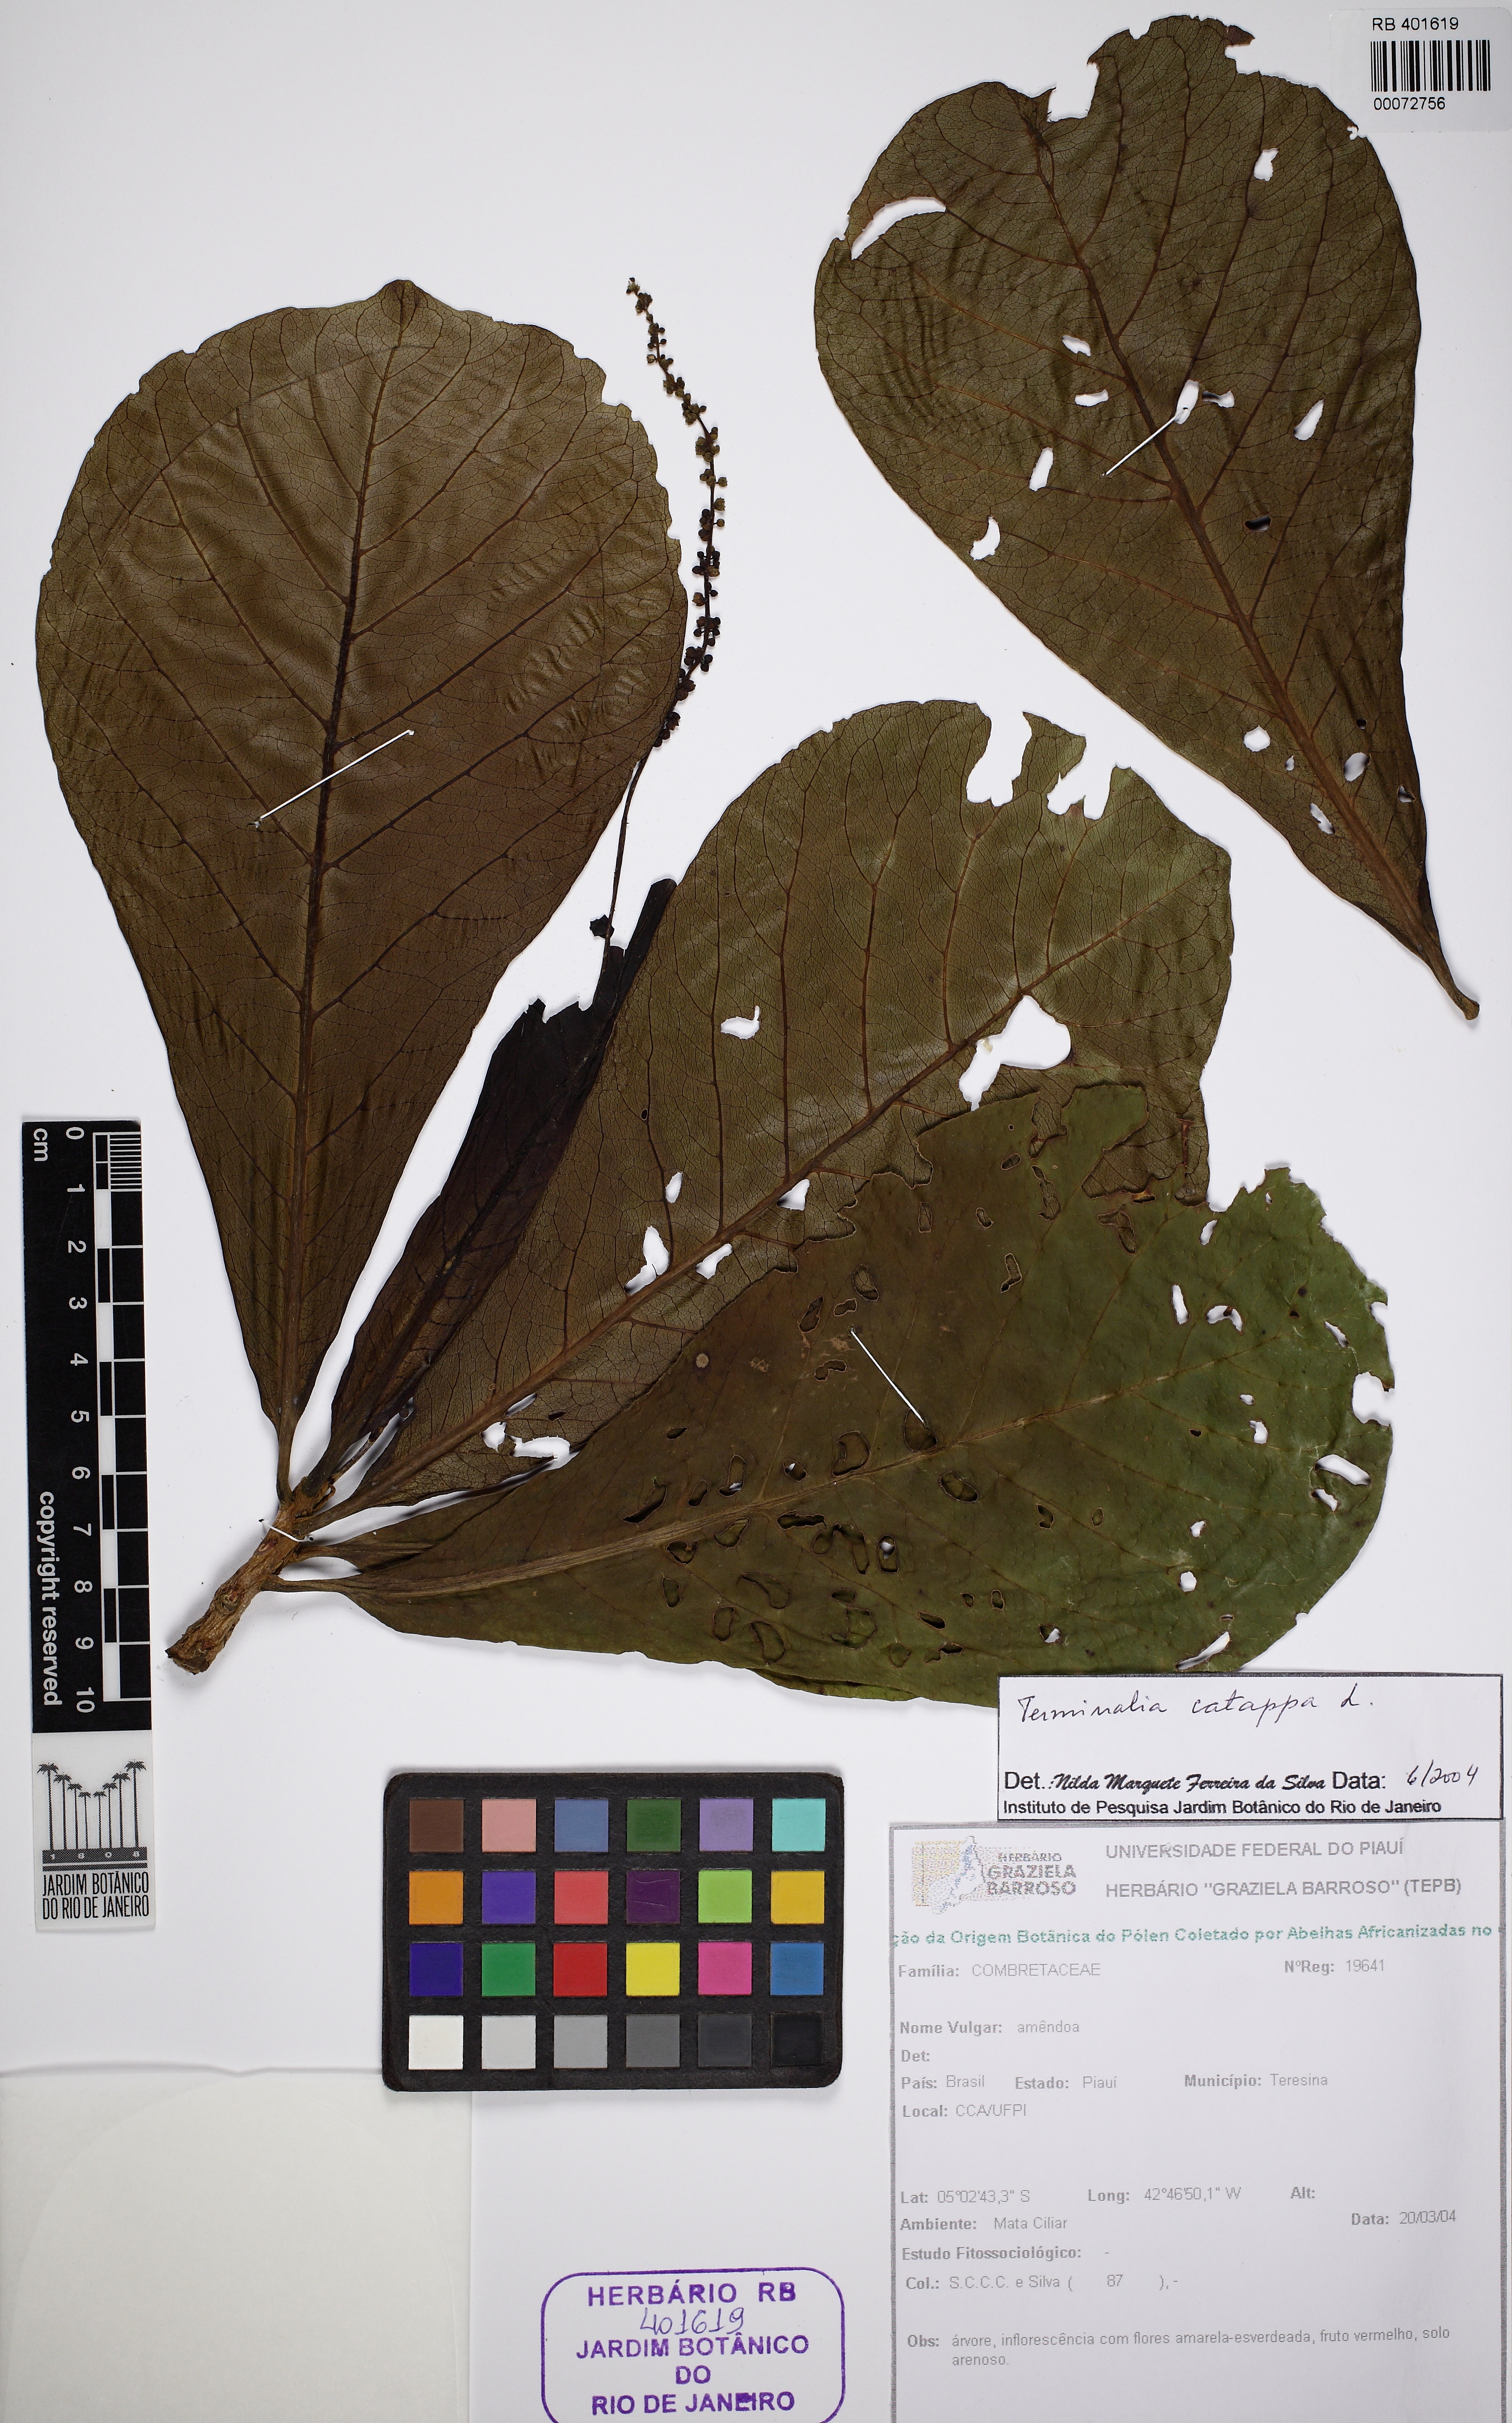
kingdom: Plantae
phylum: Tracheophyta
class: Magnoliopsida
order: Myrtales
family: Combretaceae
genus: Terminalia
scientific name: Terminalia catappa
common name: Tropical almond
